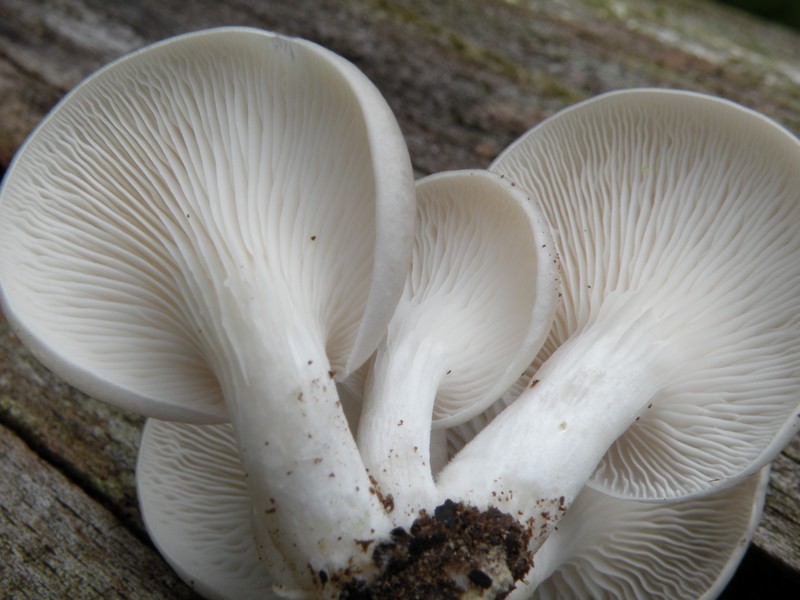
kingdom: Fungi
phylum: Basidiomycota
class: Agaricomycetes
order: Agaricales
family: Pleurotaceae
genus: Pleurotus
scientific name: Pleurotus pulmonarius
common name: sommer-østershat
